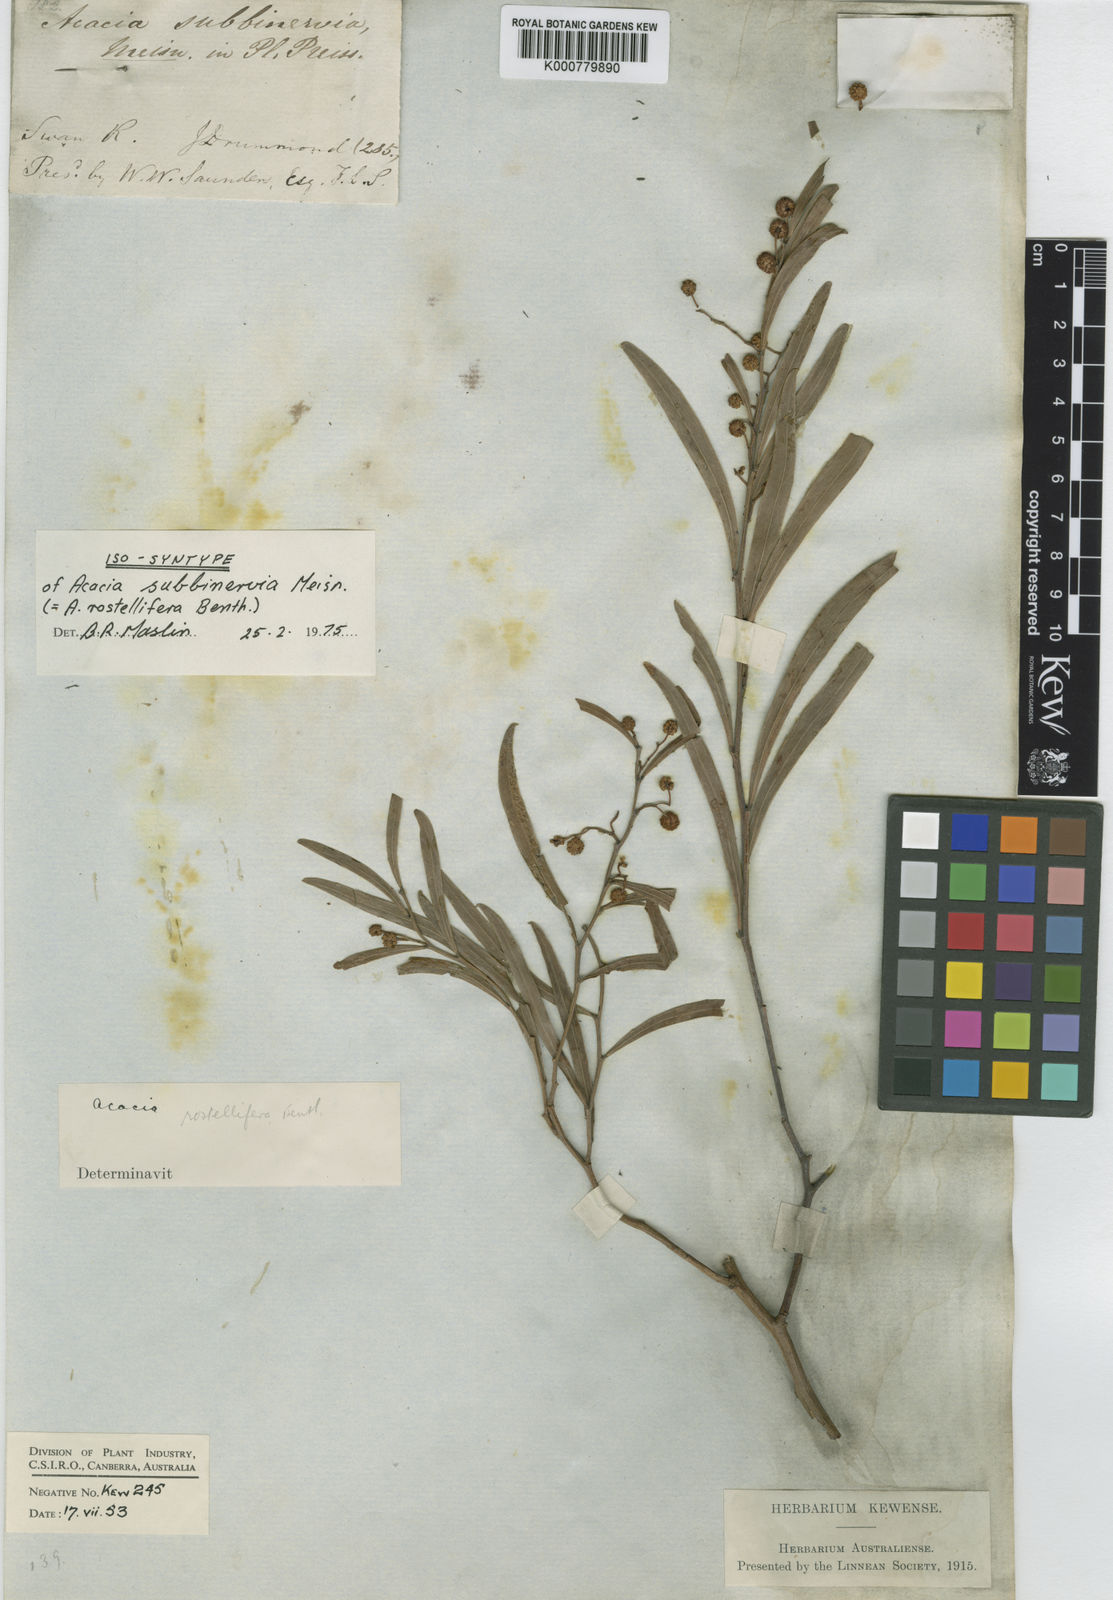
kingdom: Plantae
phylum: Tracheophyta
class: Magnoliopsida
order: Fabales
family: Fabaceae
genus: Acacia
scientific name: Acacia rostellifera
